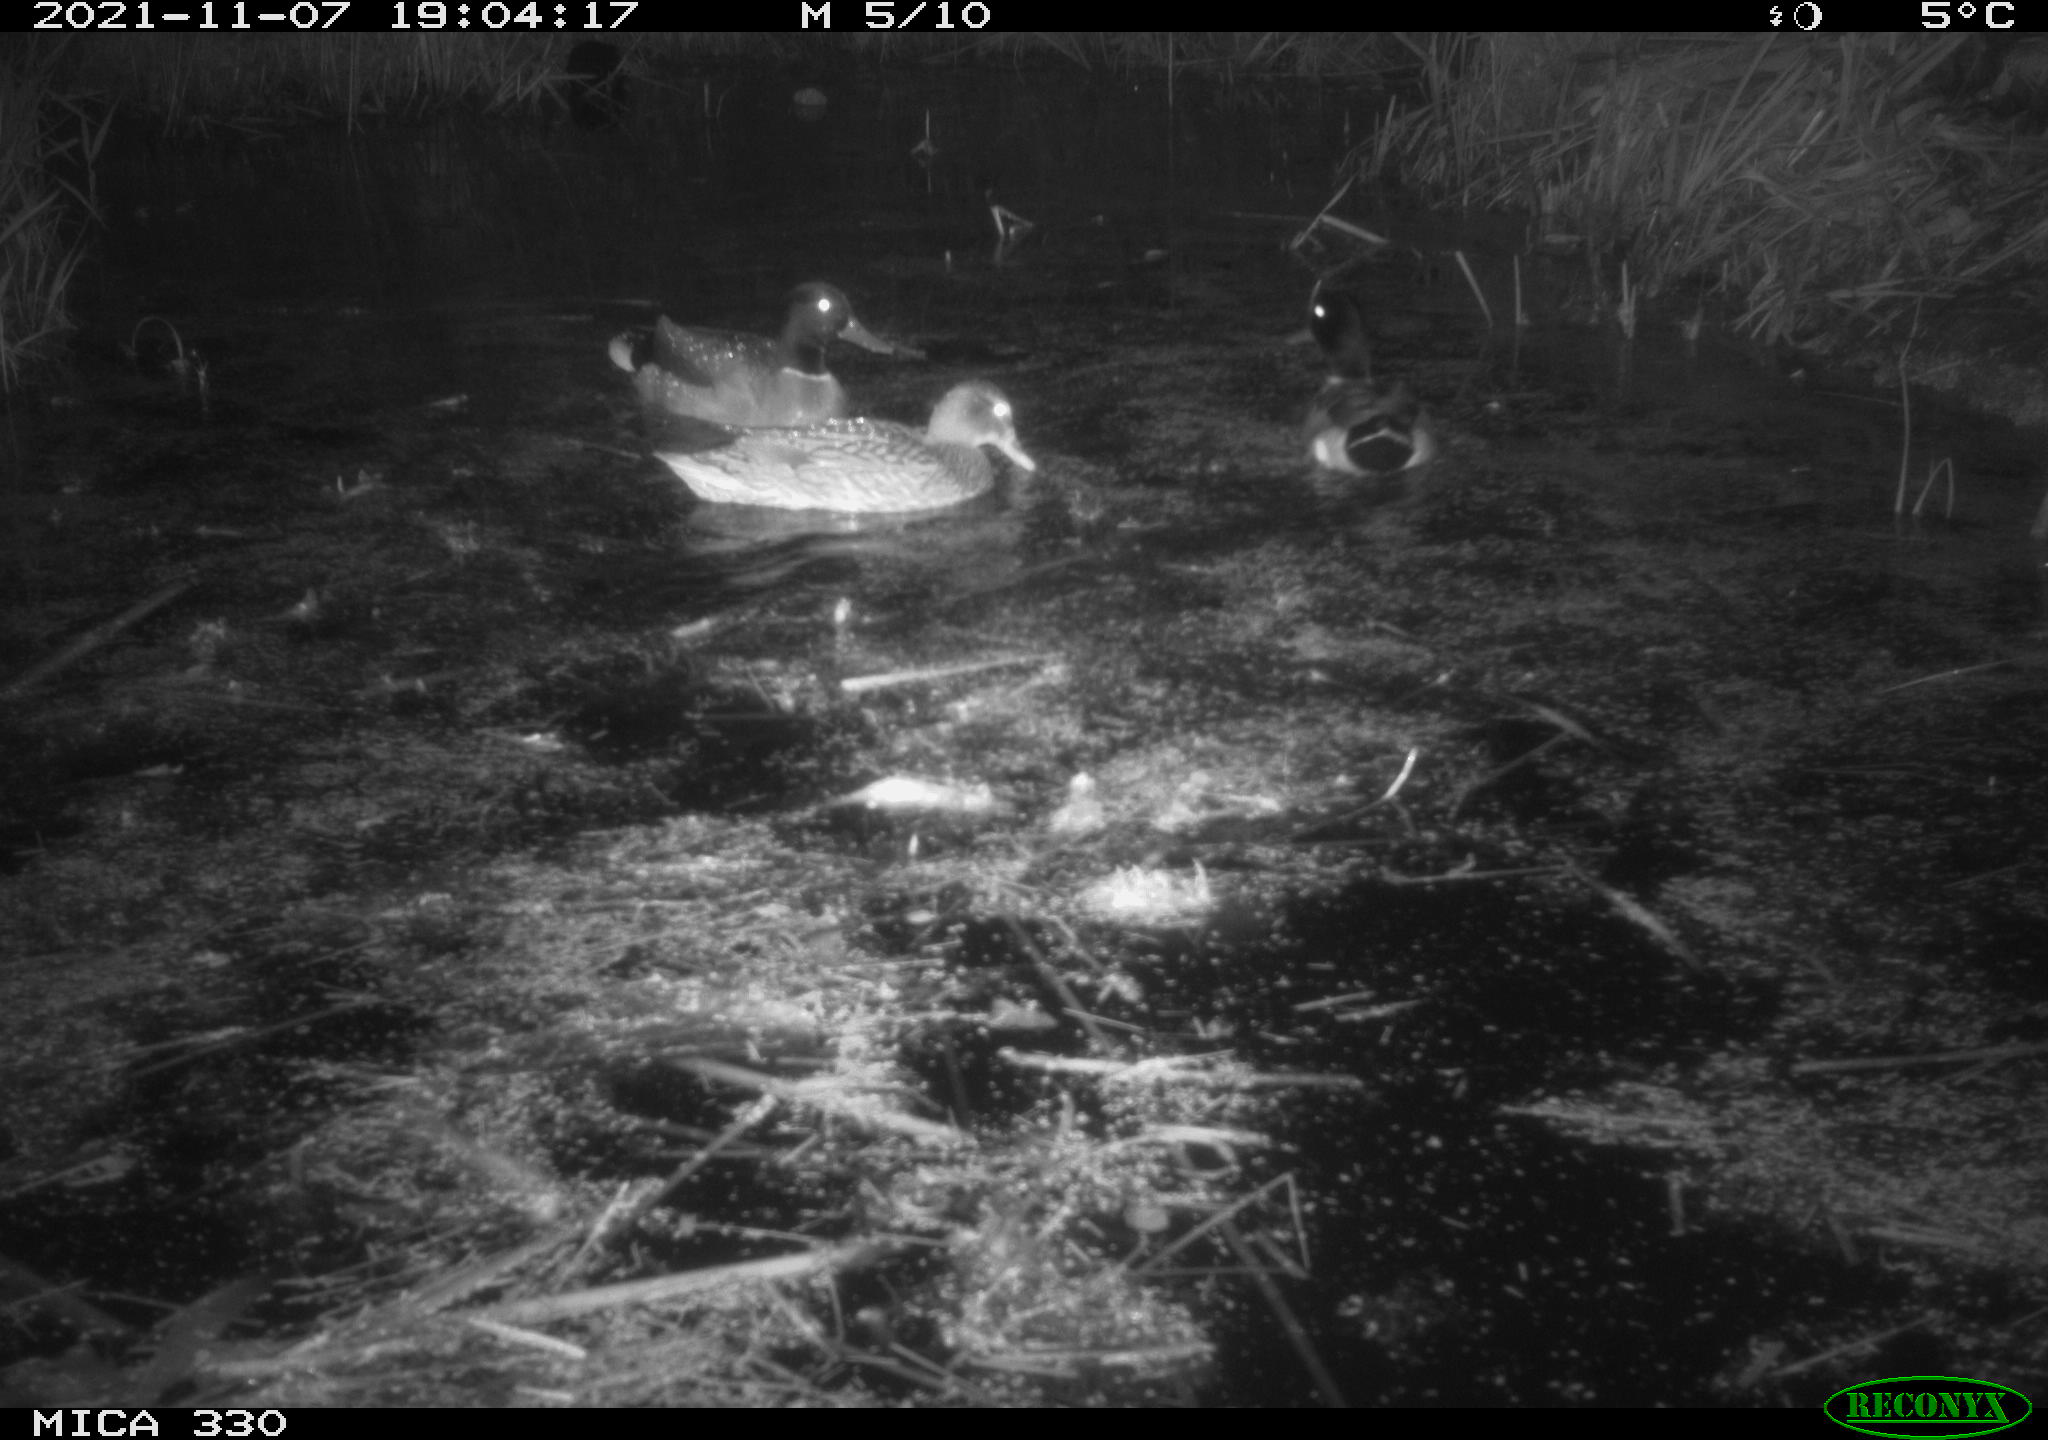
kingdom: Animalia
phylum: Chordata
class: Aves
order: Anseriformes
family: Anatidae
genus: Anas
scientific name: Anas platyrhynchos
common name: Mallard
